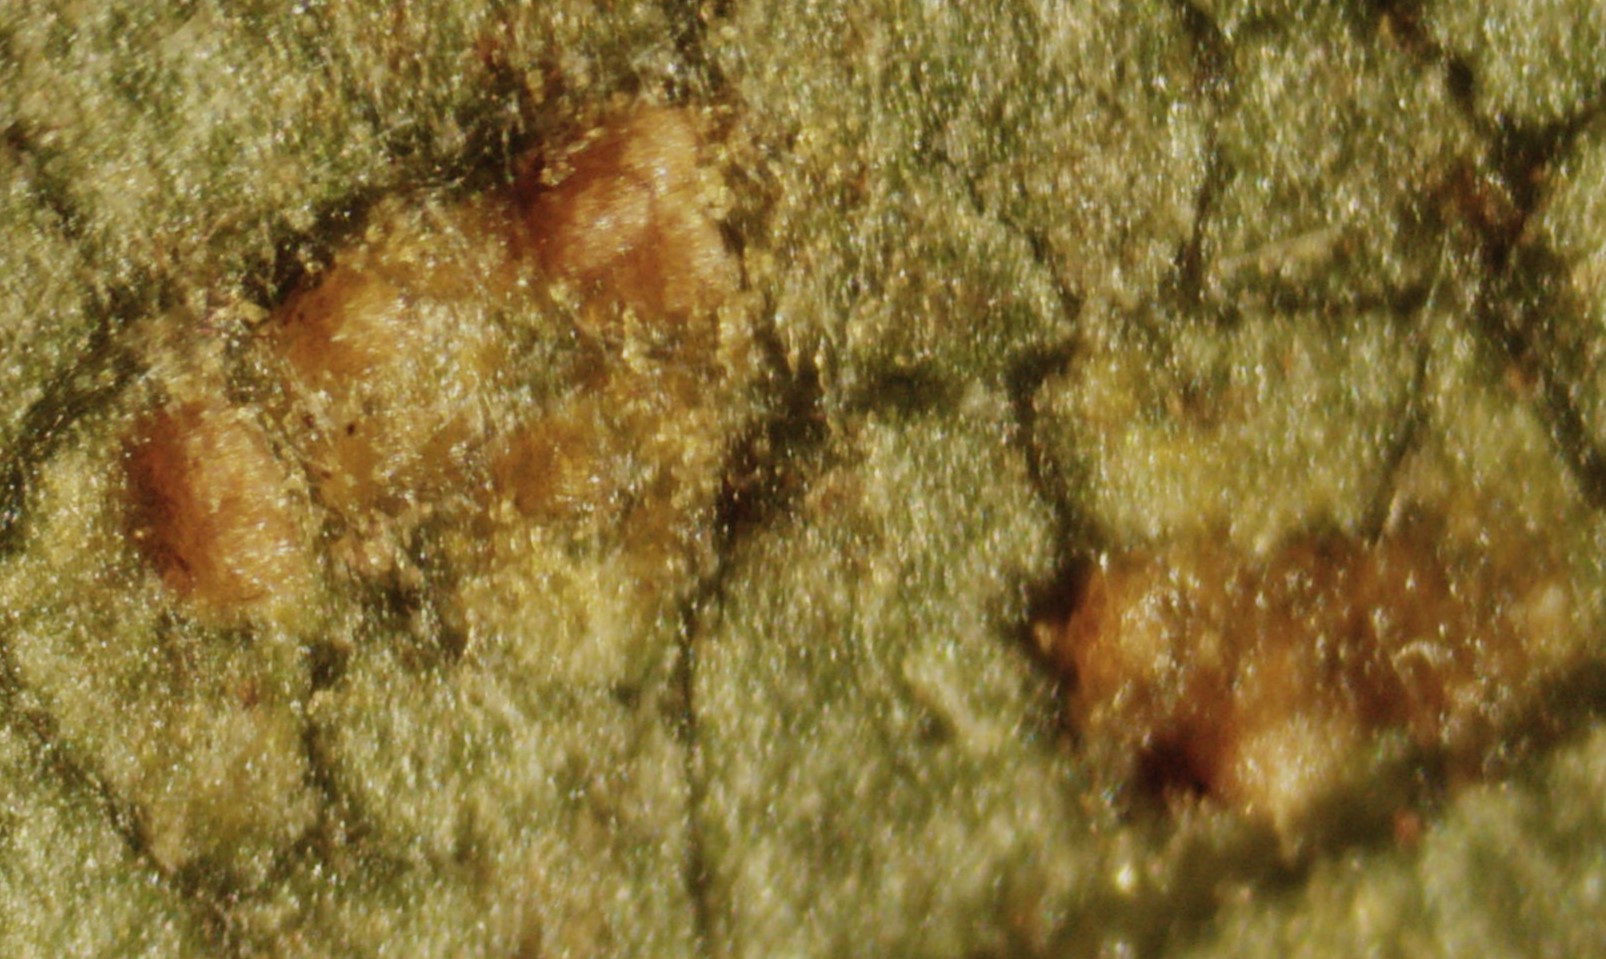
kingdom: Fungi
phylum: Basidiomycota
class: Pucciniomycetes
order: Pucciniales
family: Pucciniastraceae
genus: Melampsoridium
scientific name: Melampsoridium hiratsukanum
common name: Alder rust
